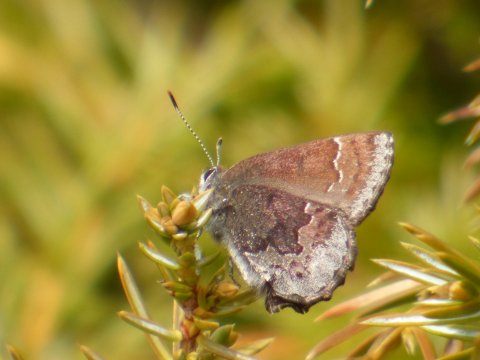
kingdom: Animalia
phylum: Arthropoda
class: Insecta
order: Lepidoptera
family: Lycaenidae
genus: Callophrys
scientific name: Callophrys polios
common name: Hoary Elfin
